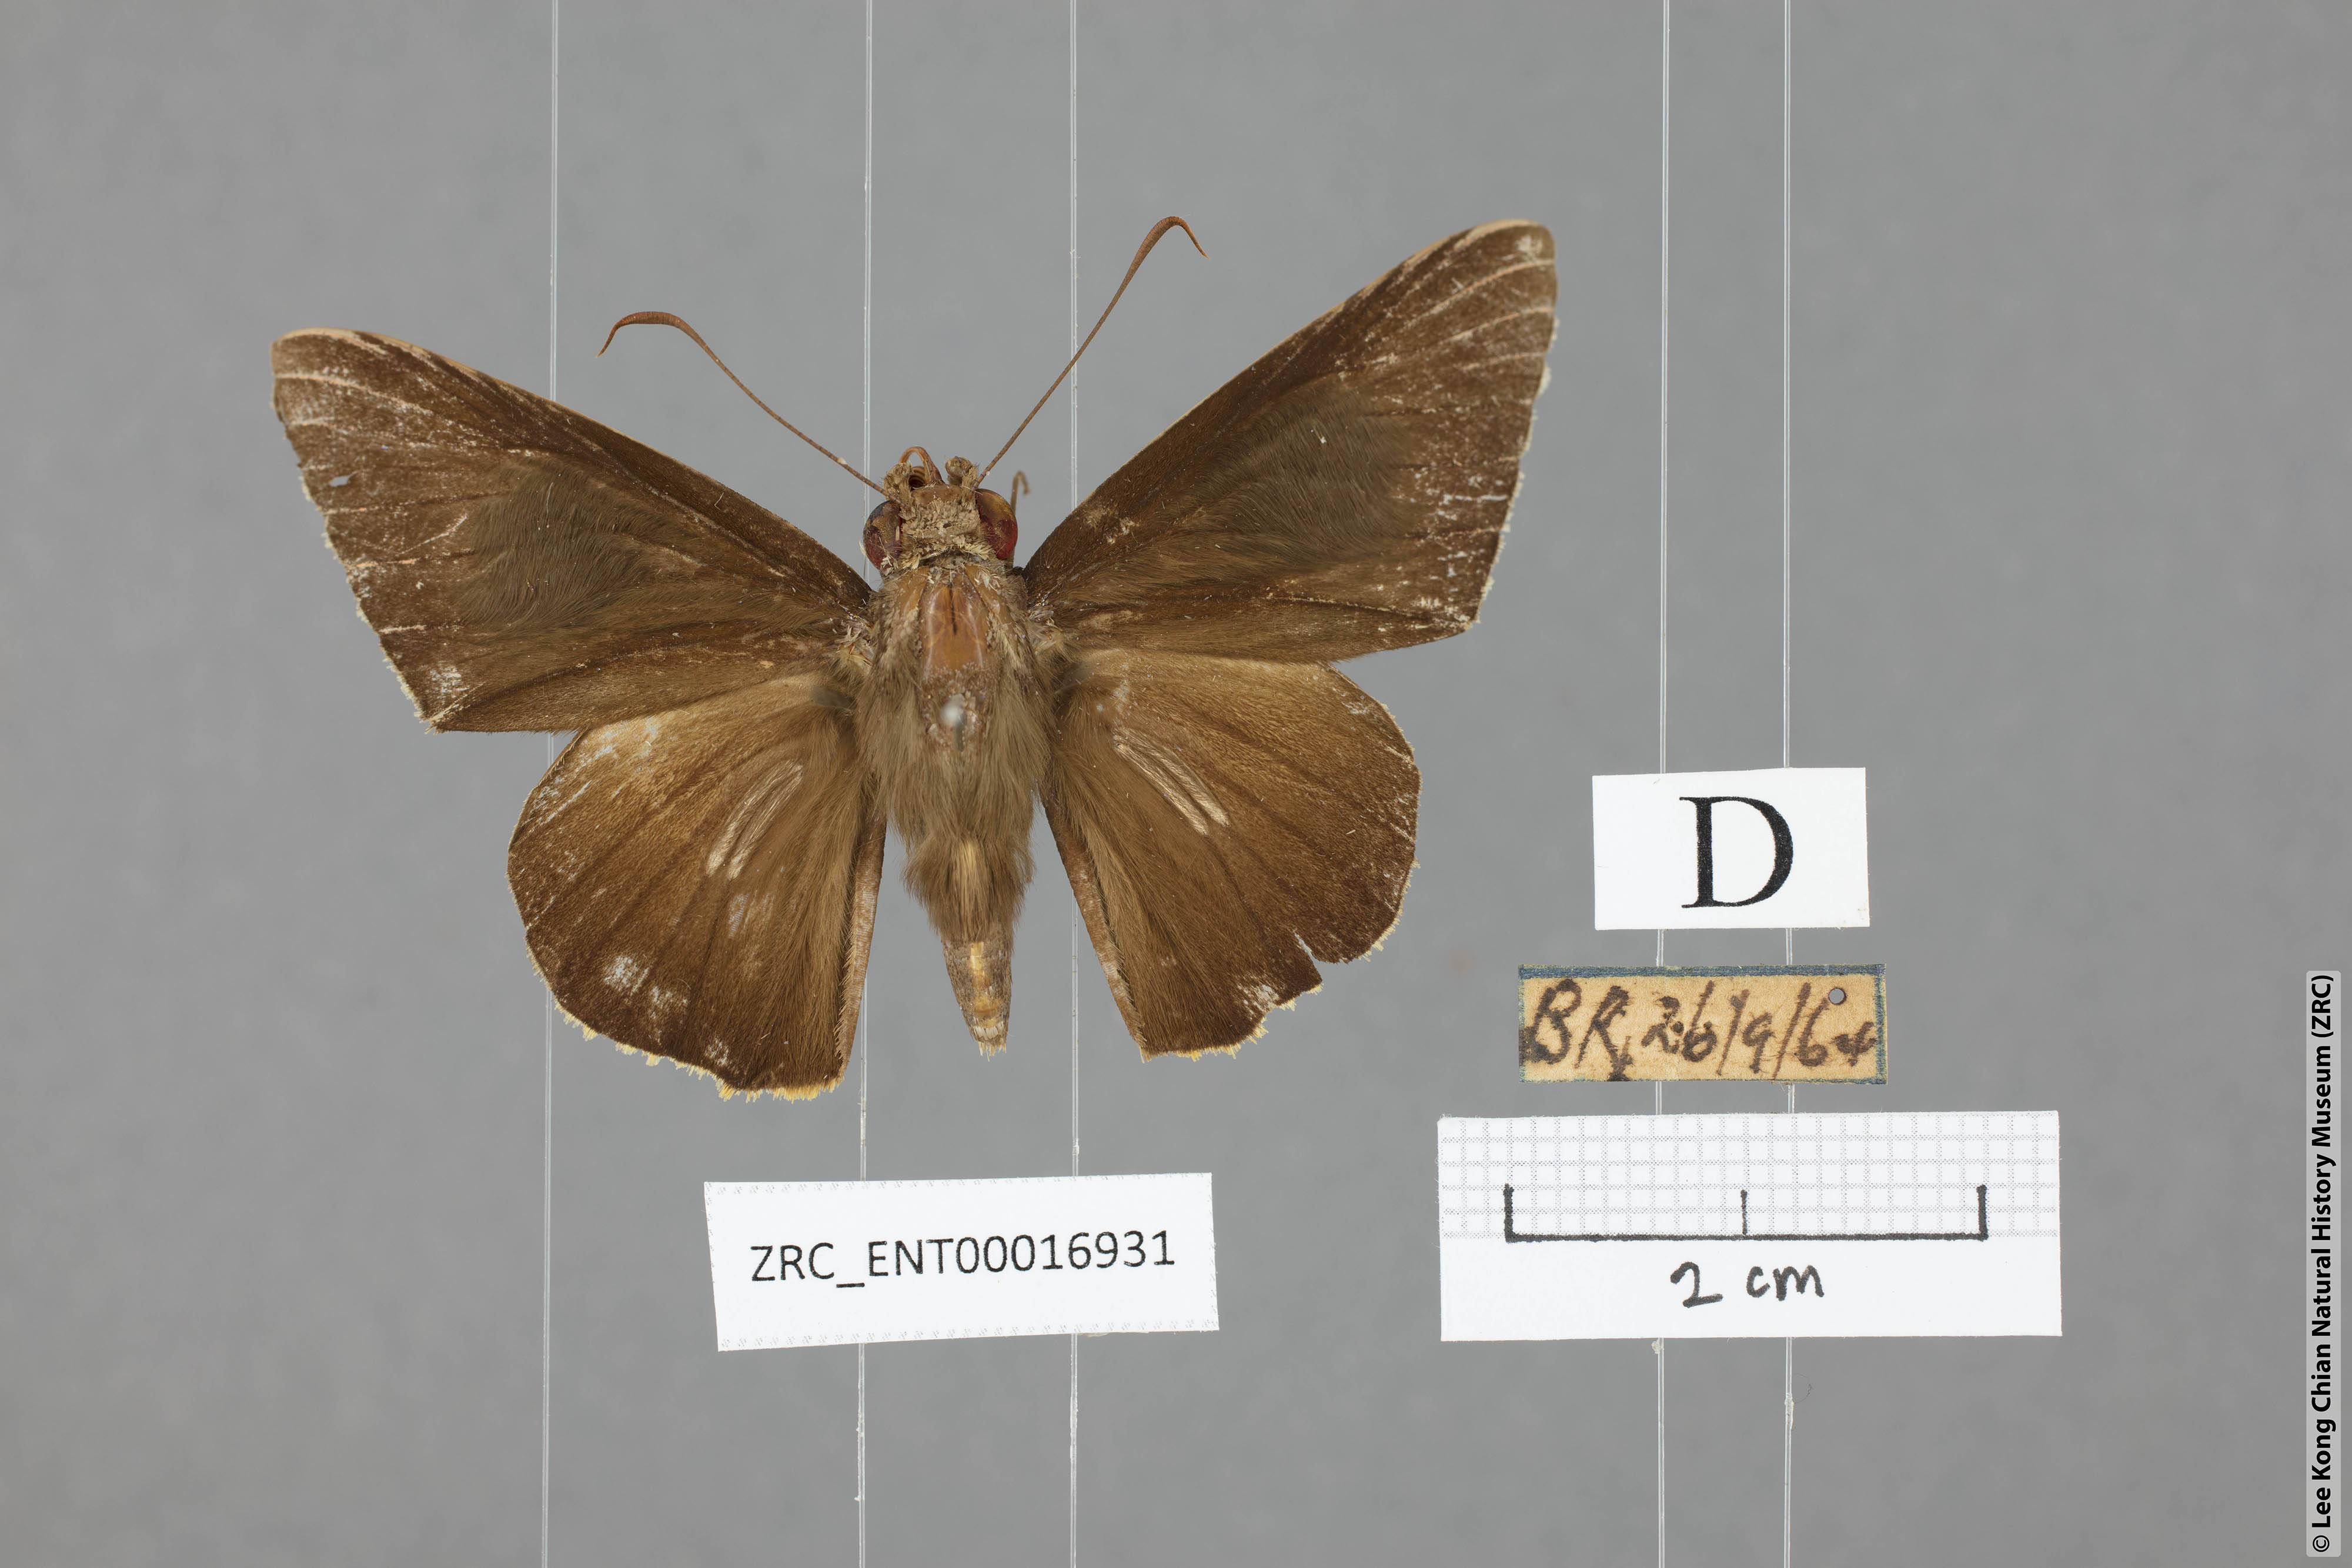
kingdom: Animalia
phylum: Arthropoda
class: Insecta
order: Lepidoptera
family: Hesperiidae
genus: Gangara
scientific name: Gangara lebadea
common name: Banded redeye
